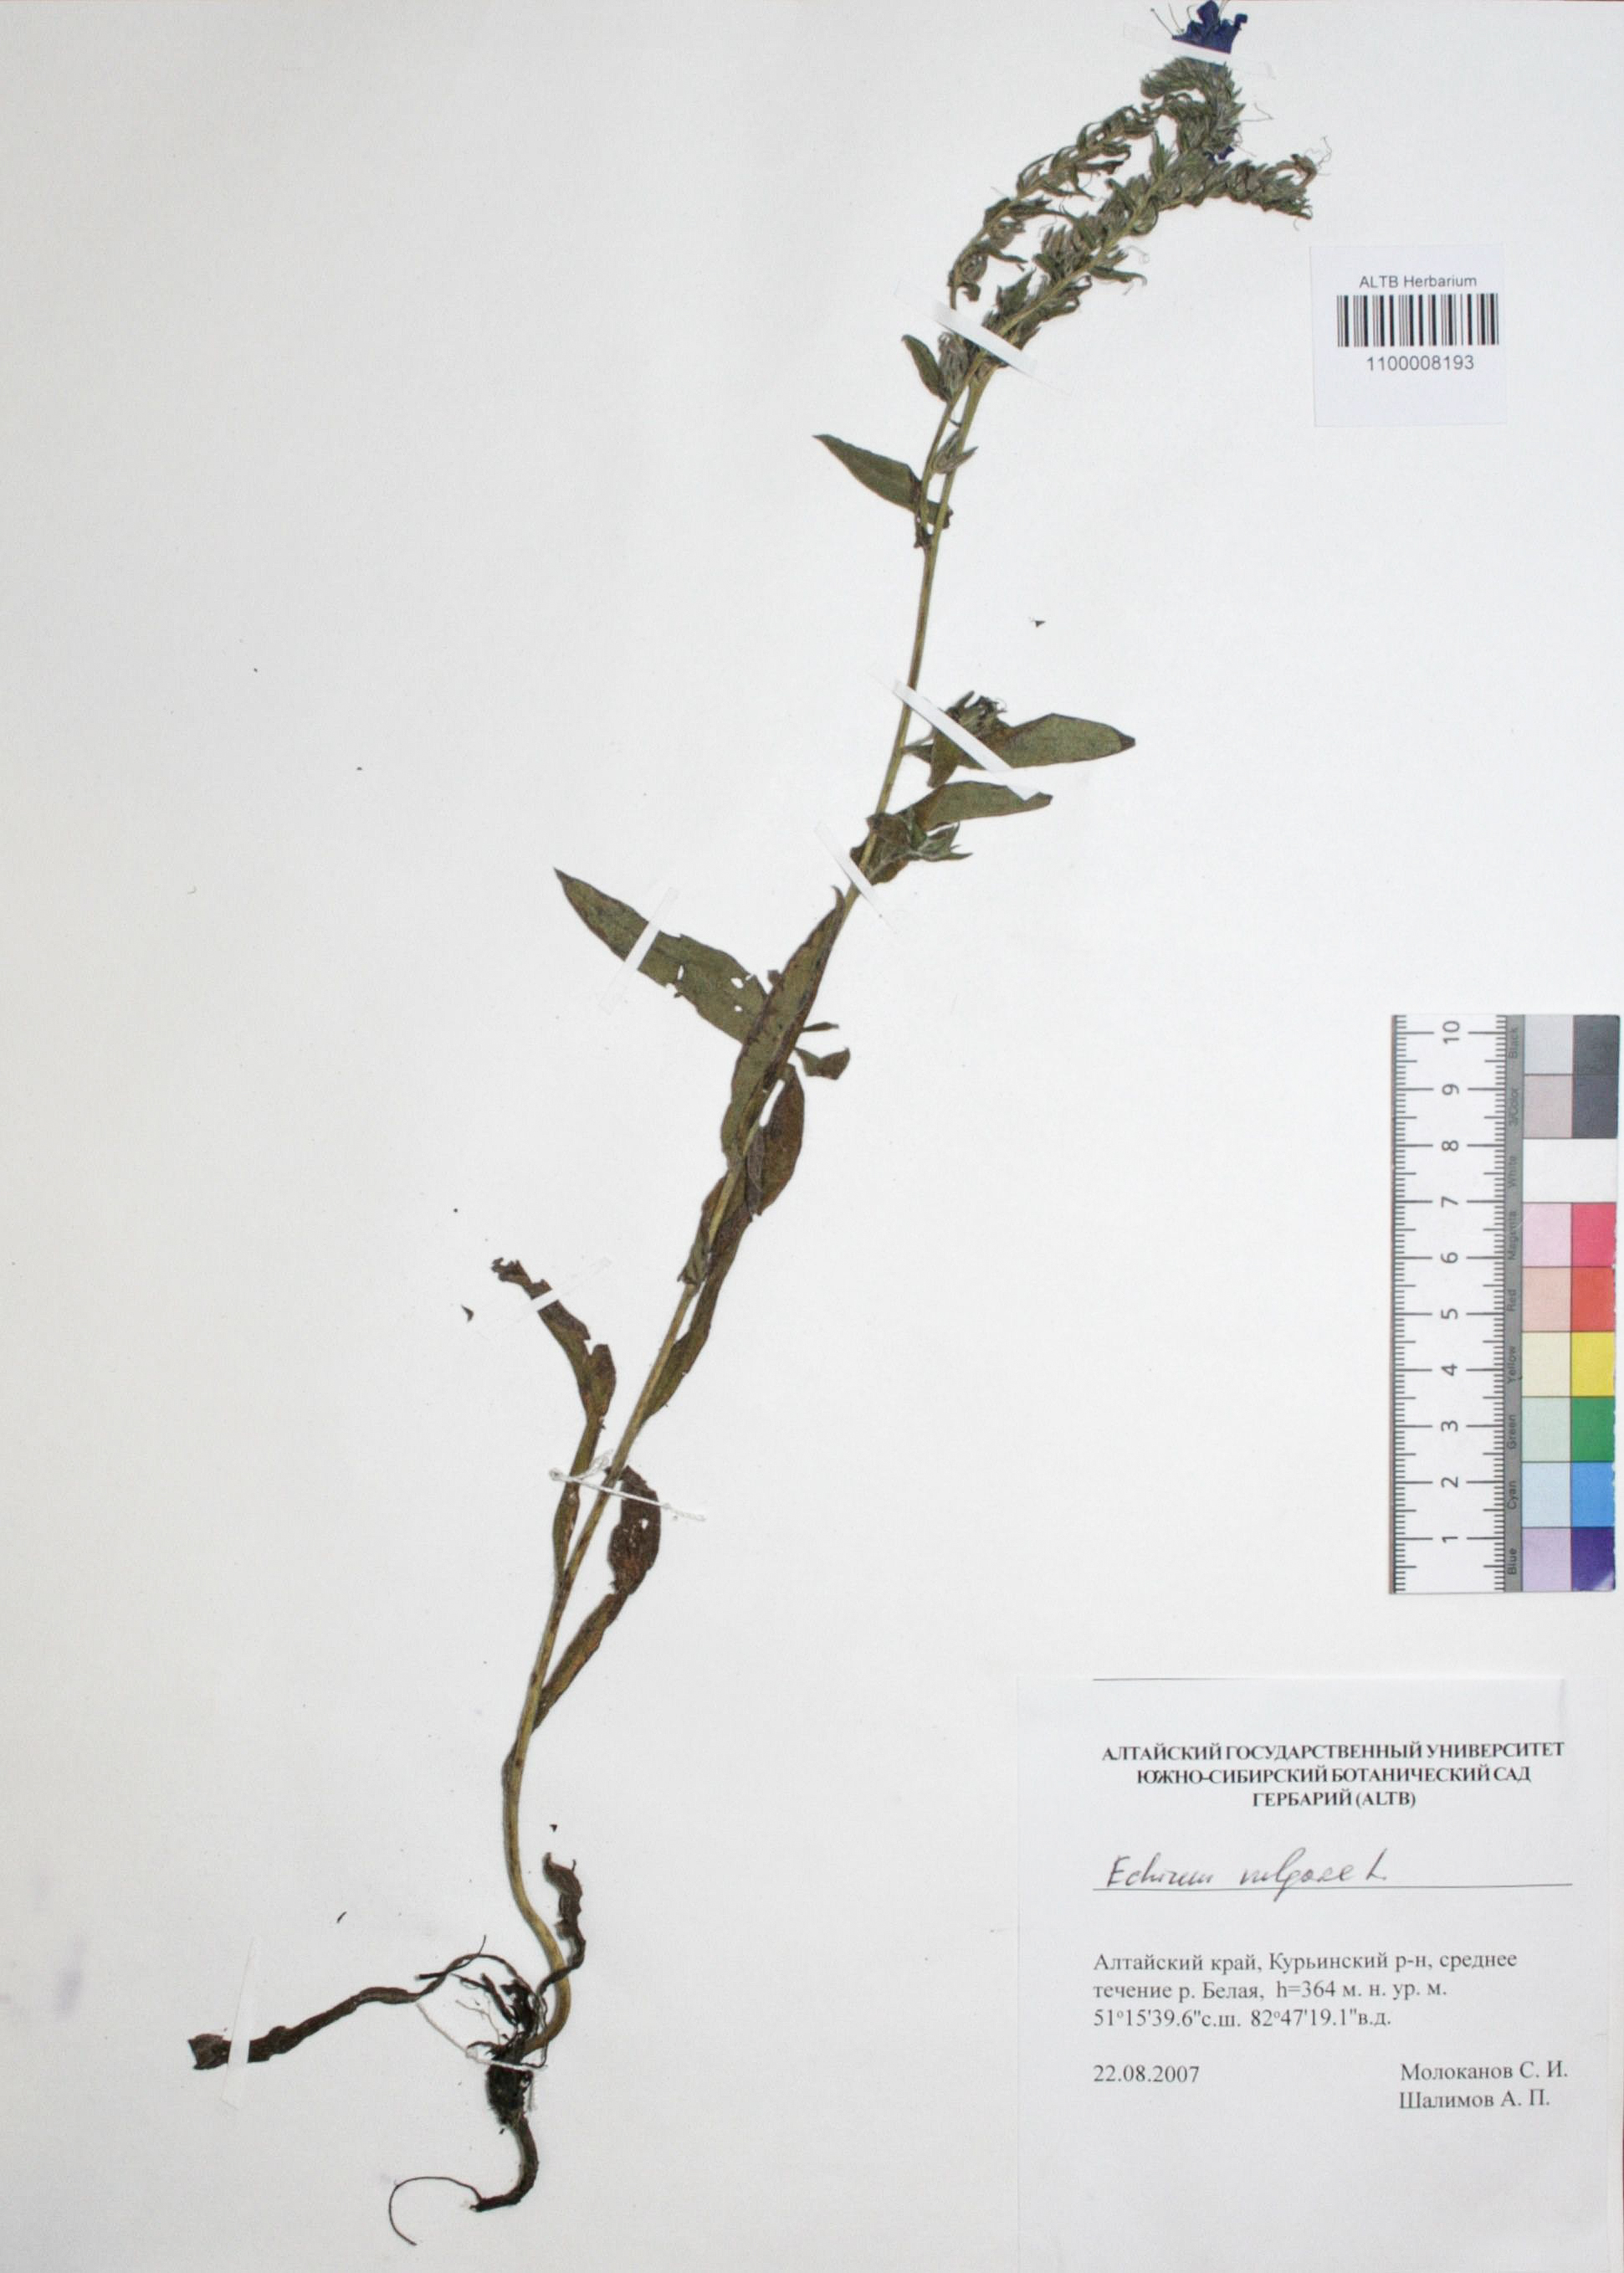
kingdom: Plantae
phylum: Tracheophyta
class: Magnoliopsida
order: Boraginales
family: Boraginaceae
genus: Echium
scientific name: Echium vulgare
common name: Common viper's bugloss
